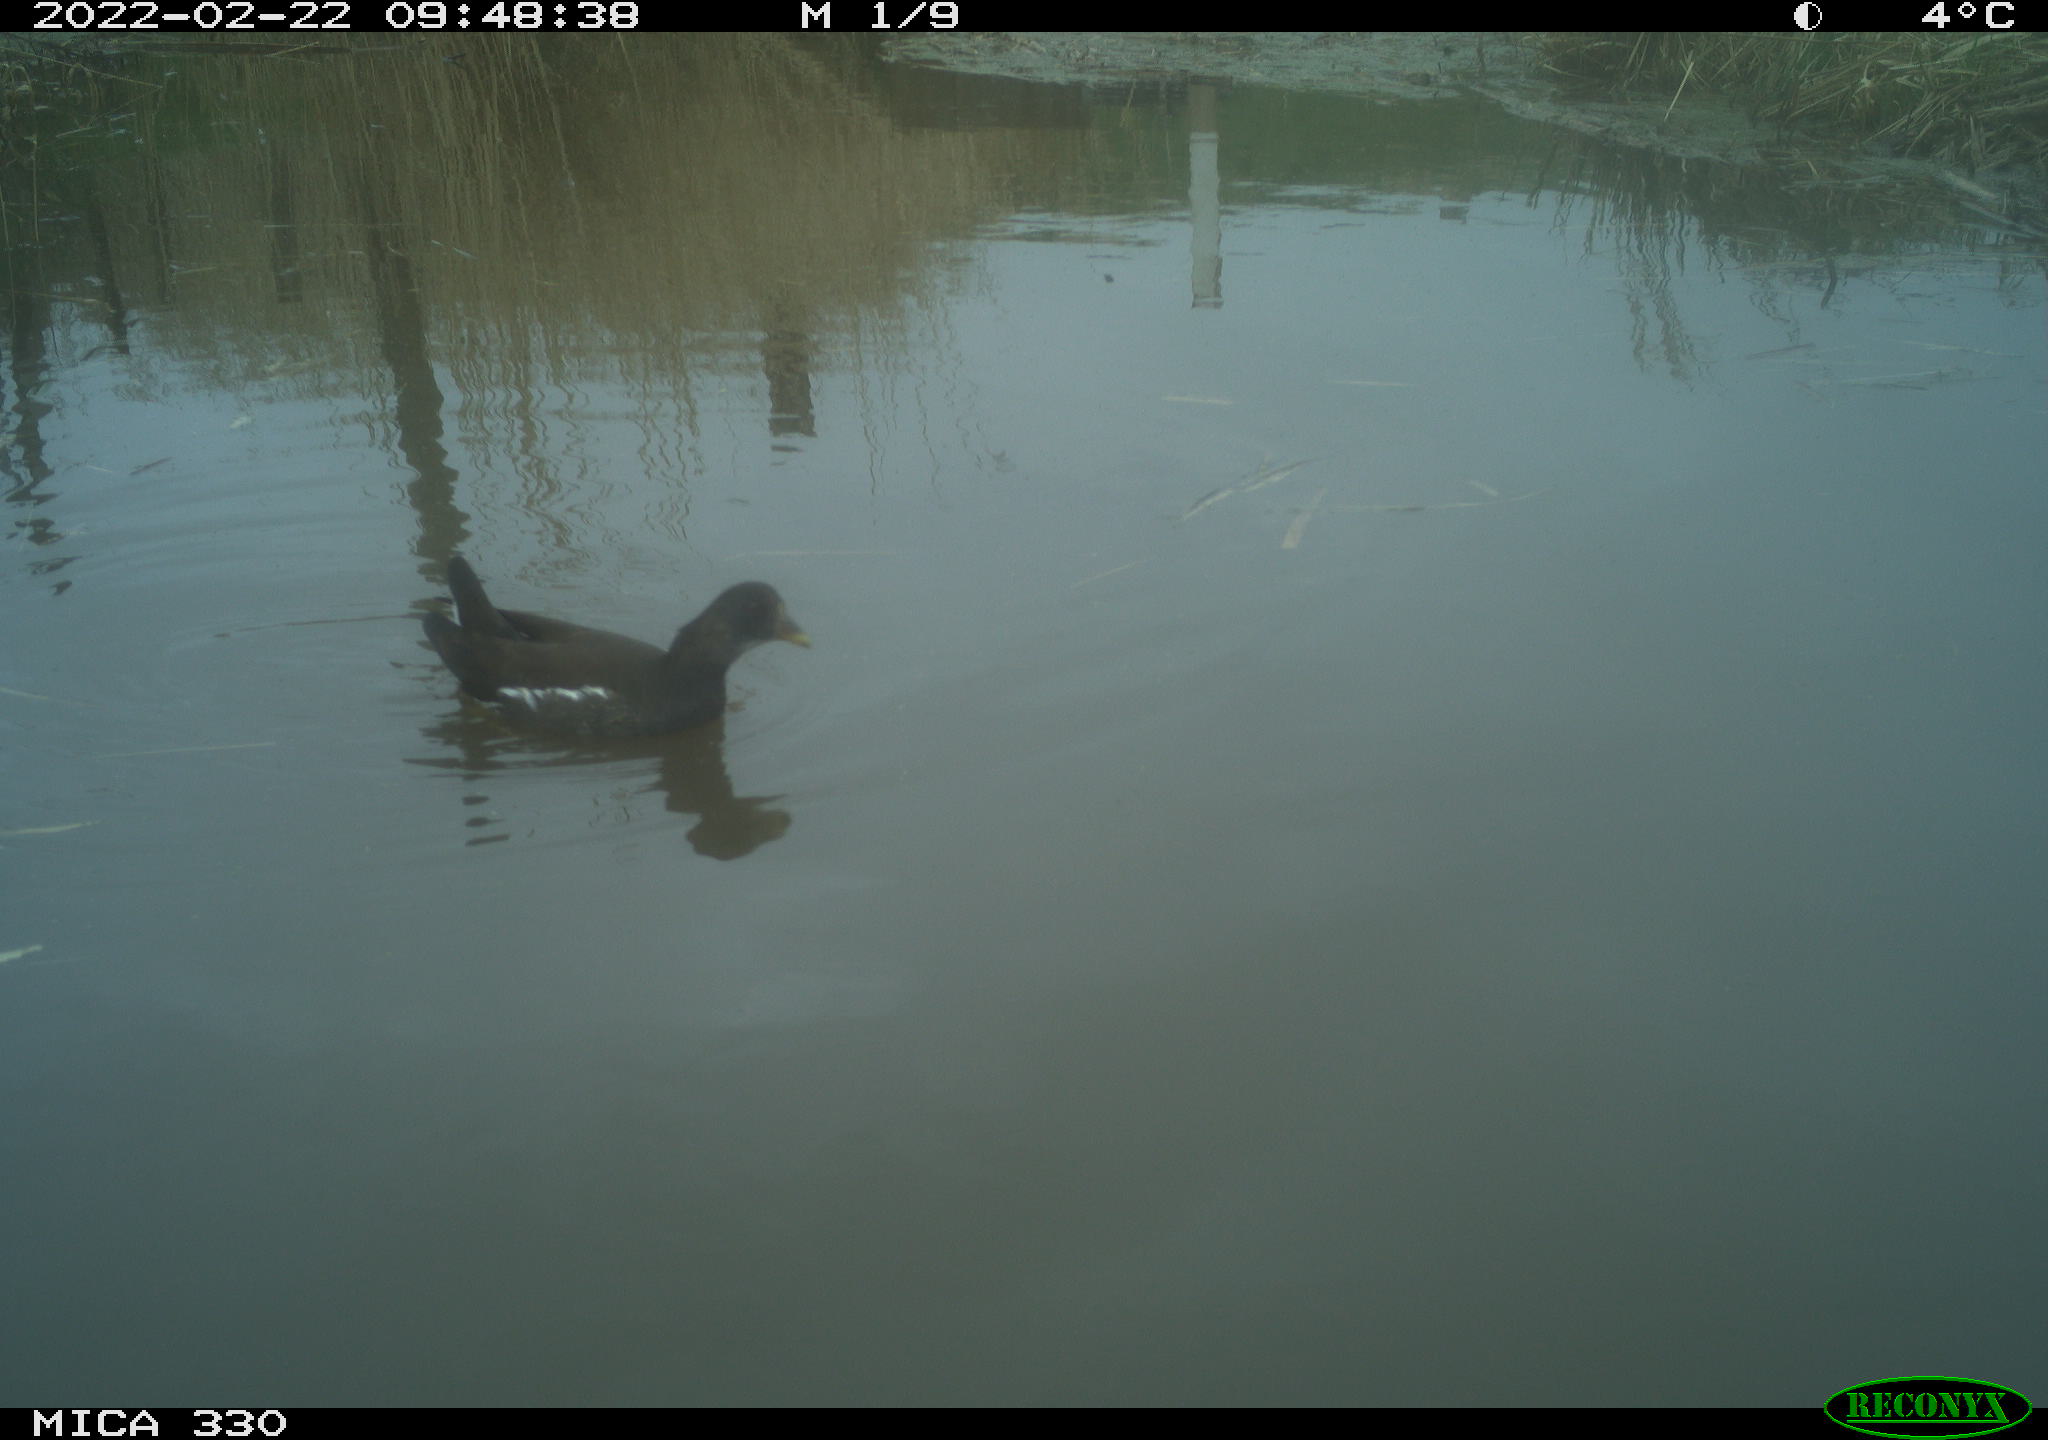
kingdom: Animalia
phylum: Chordata
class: Aves
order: Gruiformes
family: Rallidae
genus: Gallinula
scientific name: Gallinula chloropus
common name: Common moorhen
